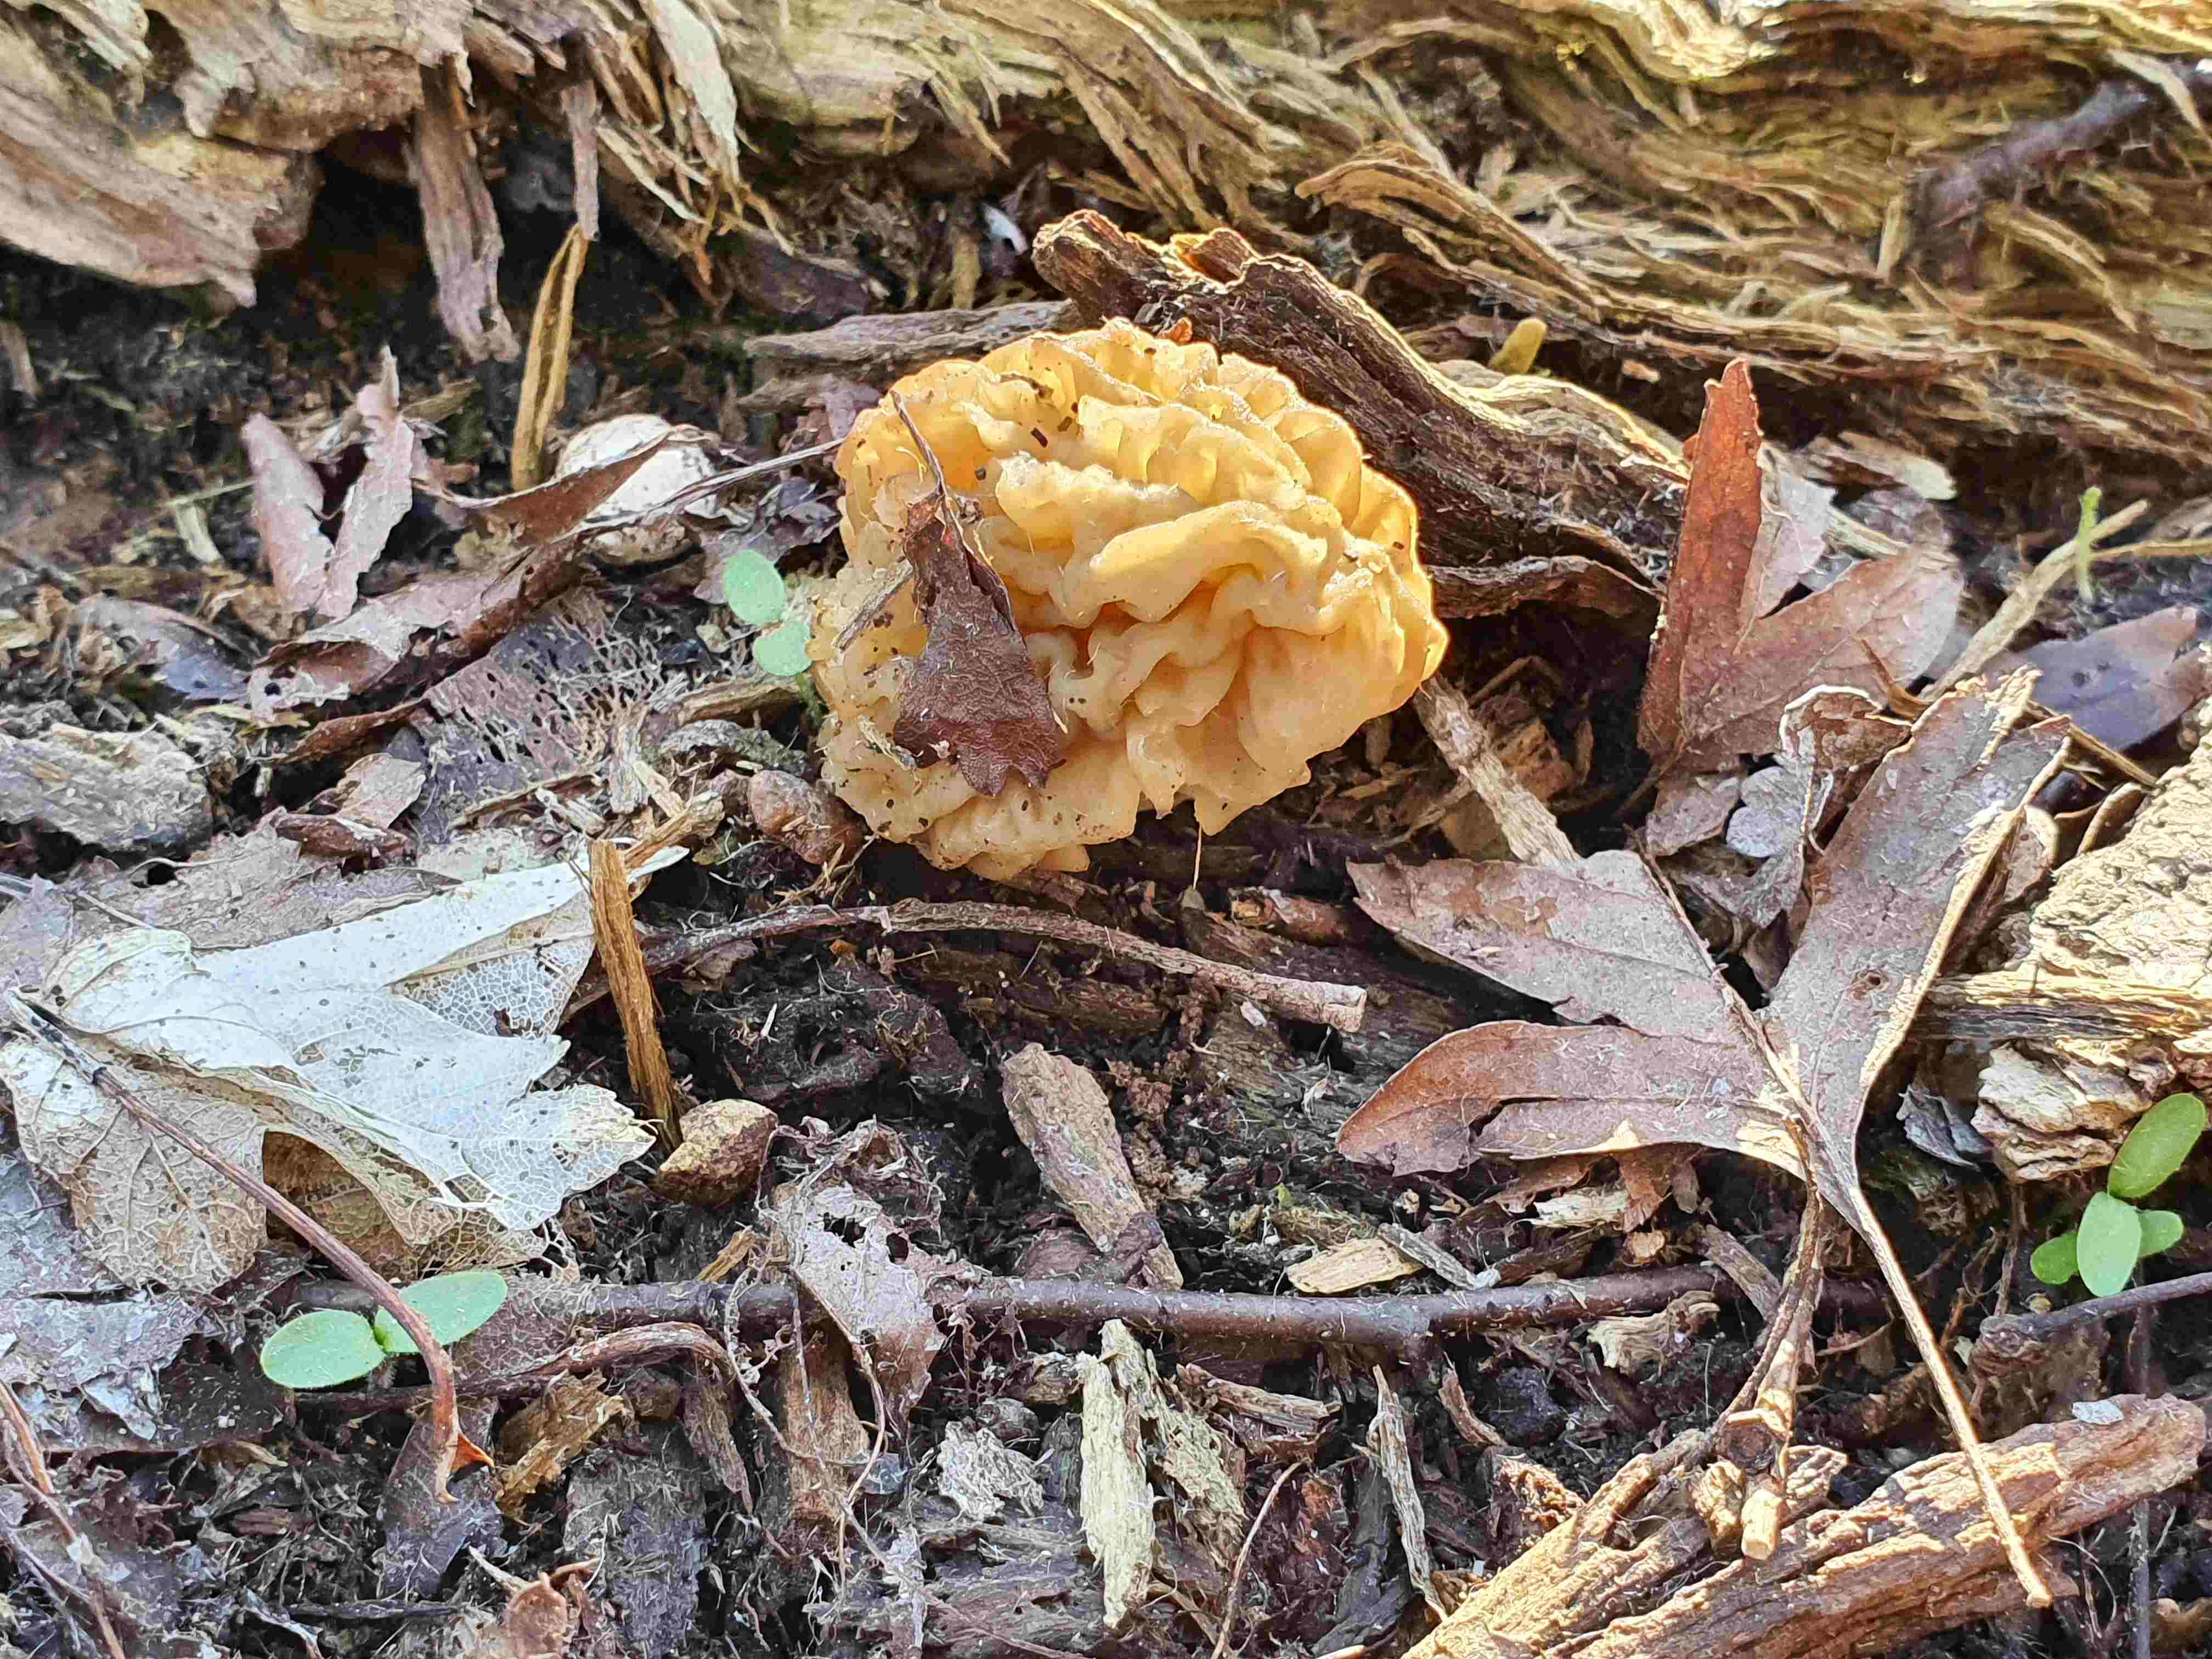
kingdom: Fungi
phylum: Ascomycota
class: Pezizomycetes
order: Pezizales
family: Morchellaceae
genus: Verpa
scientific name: Verpa bohemica
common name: rynket klokkemorkel
